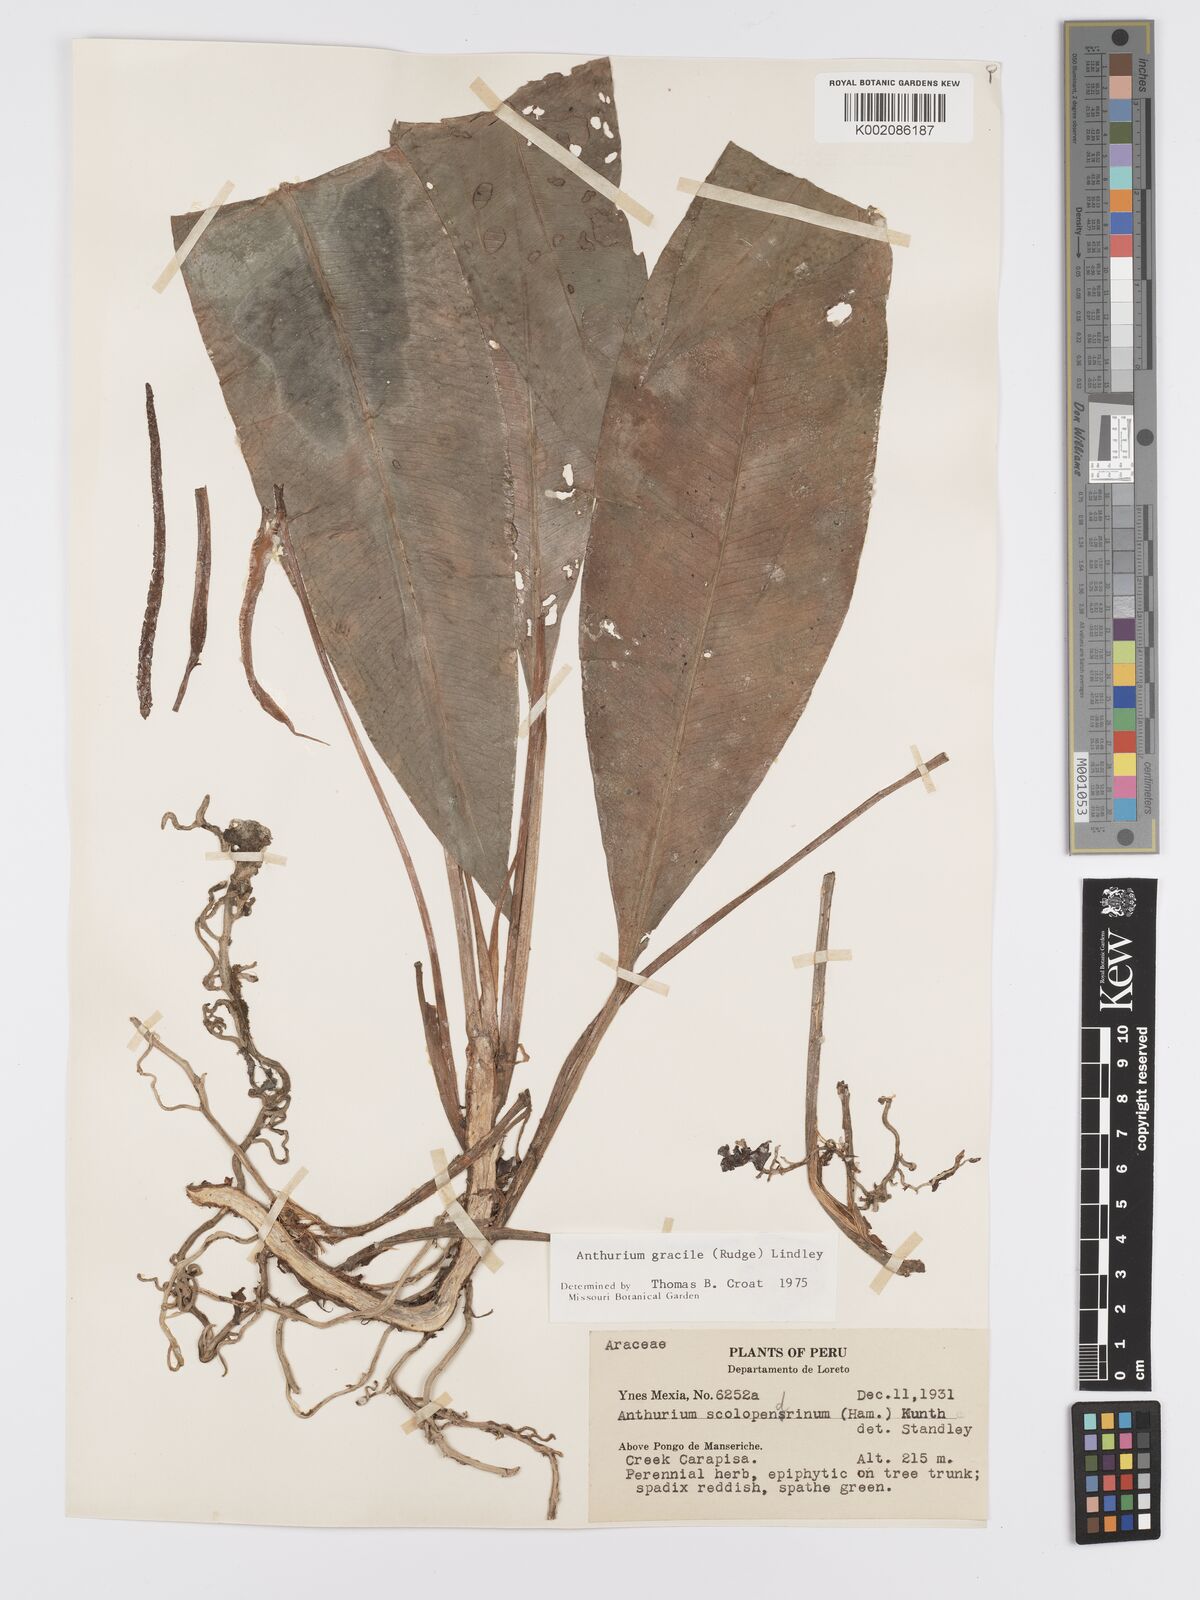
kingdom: Plantae
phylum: Tracheophyta
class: Liliopsida
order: Alismatales
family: Araceae
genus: Anthurium
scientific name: Anthurium gracile
